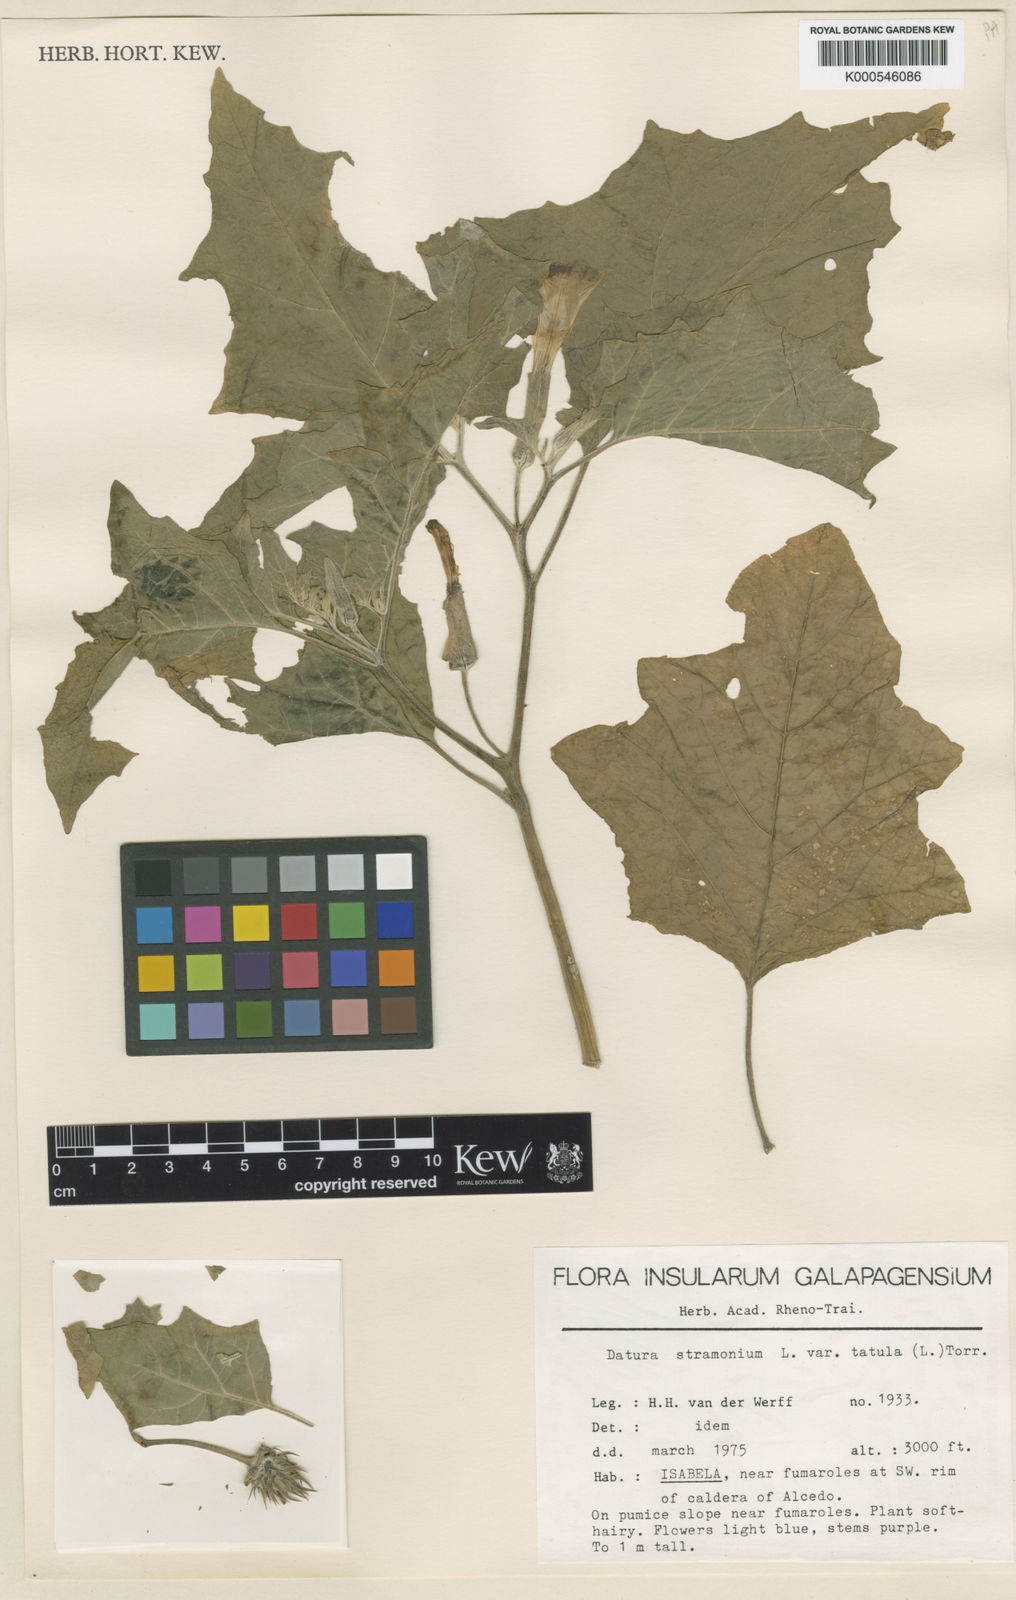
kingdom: Plantae
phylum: Tracheophyta
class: Magnoliopsida
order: Solanales
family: Solanaceae
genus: Datura
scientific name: Datura stramonium
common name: Thorn-apple
